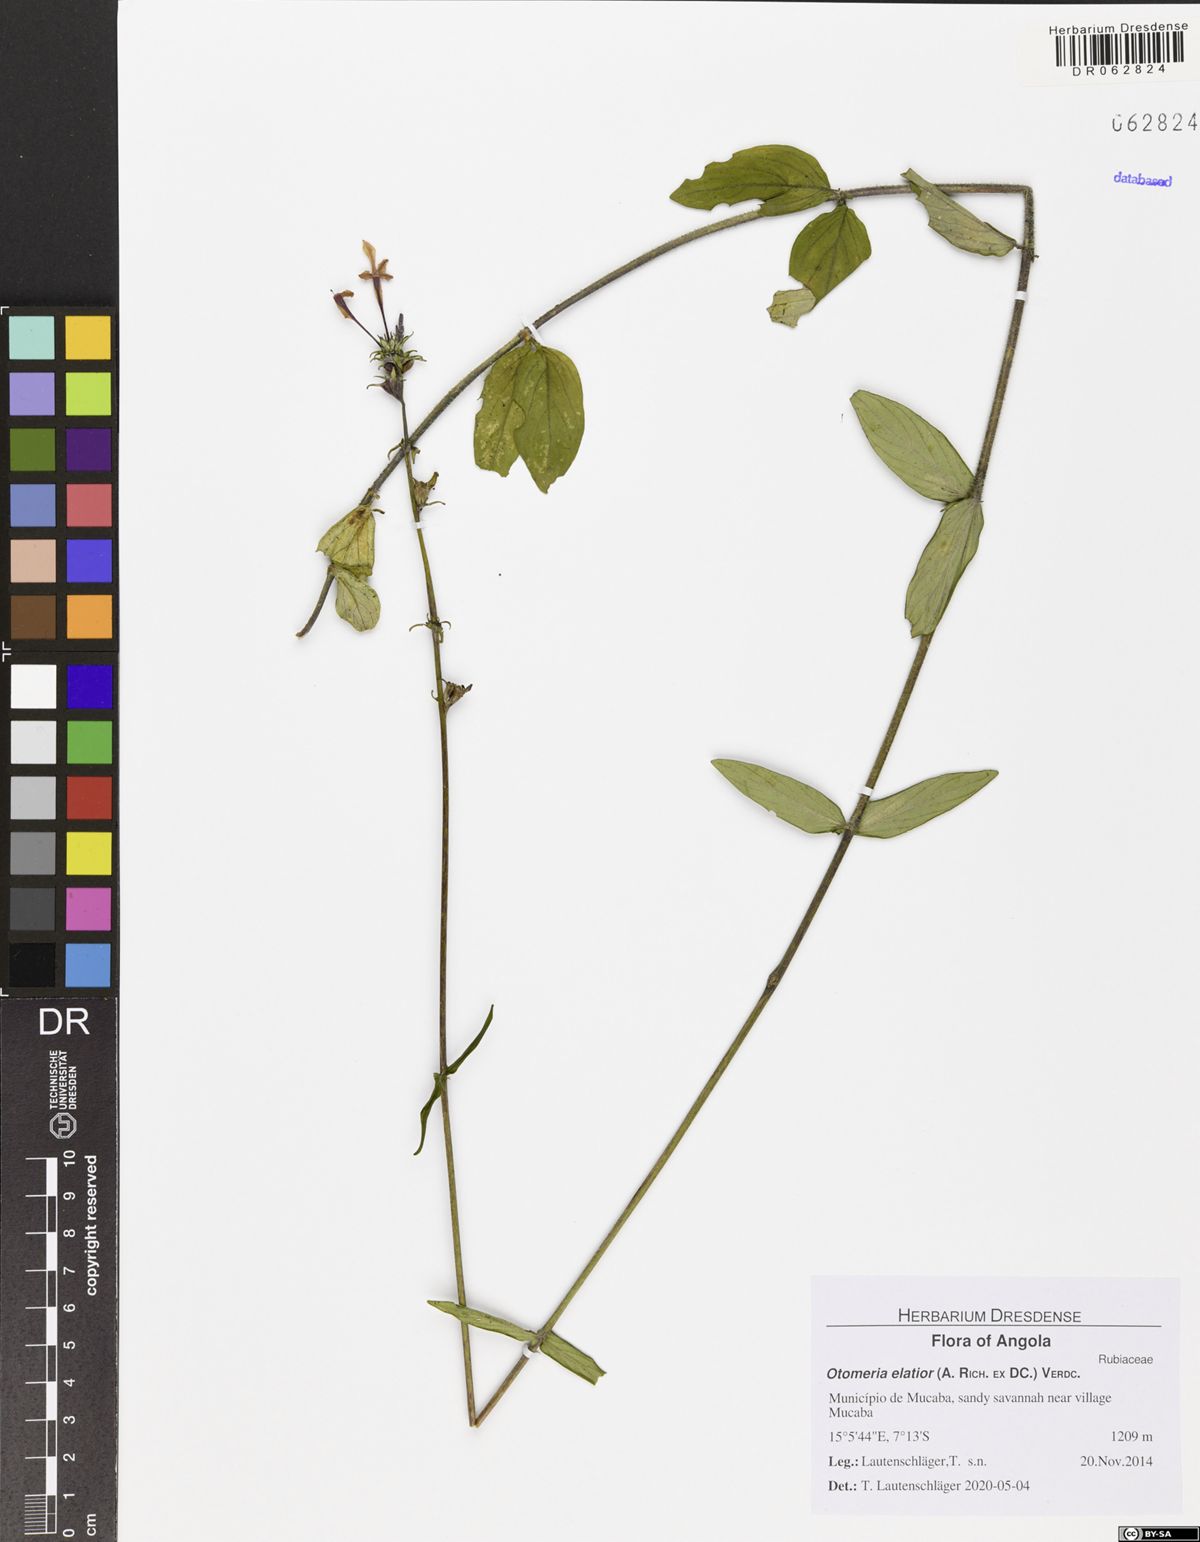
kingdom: Plantae
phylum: Tracheophyta
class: Magnoliopsida
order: Gentianales
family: Rubiaceae
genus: Otomeria
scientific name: Otomeria elatior
